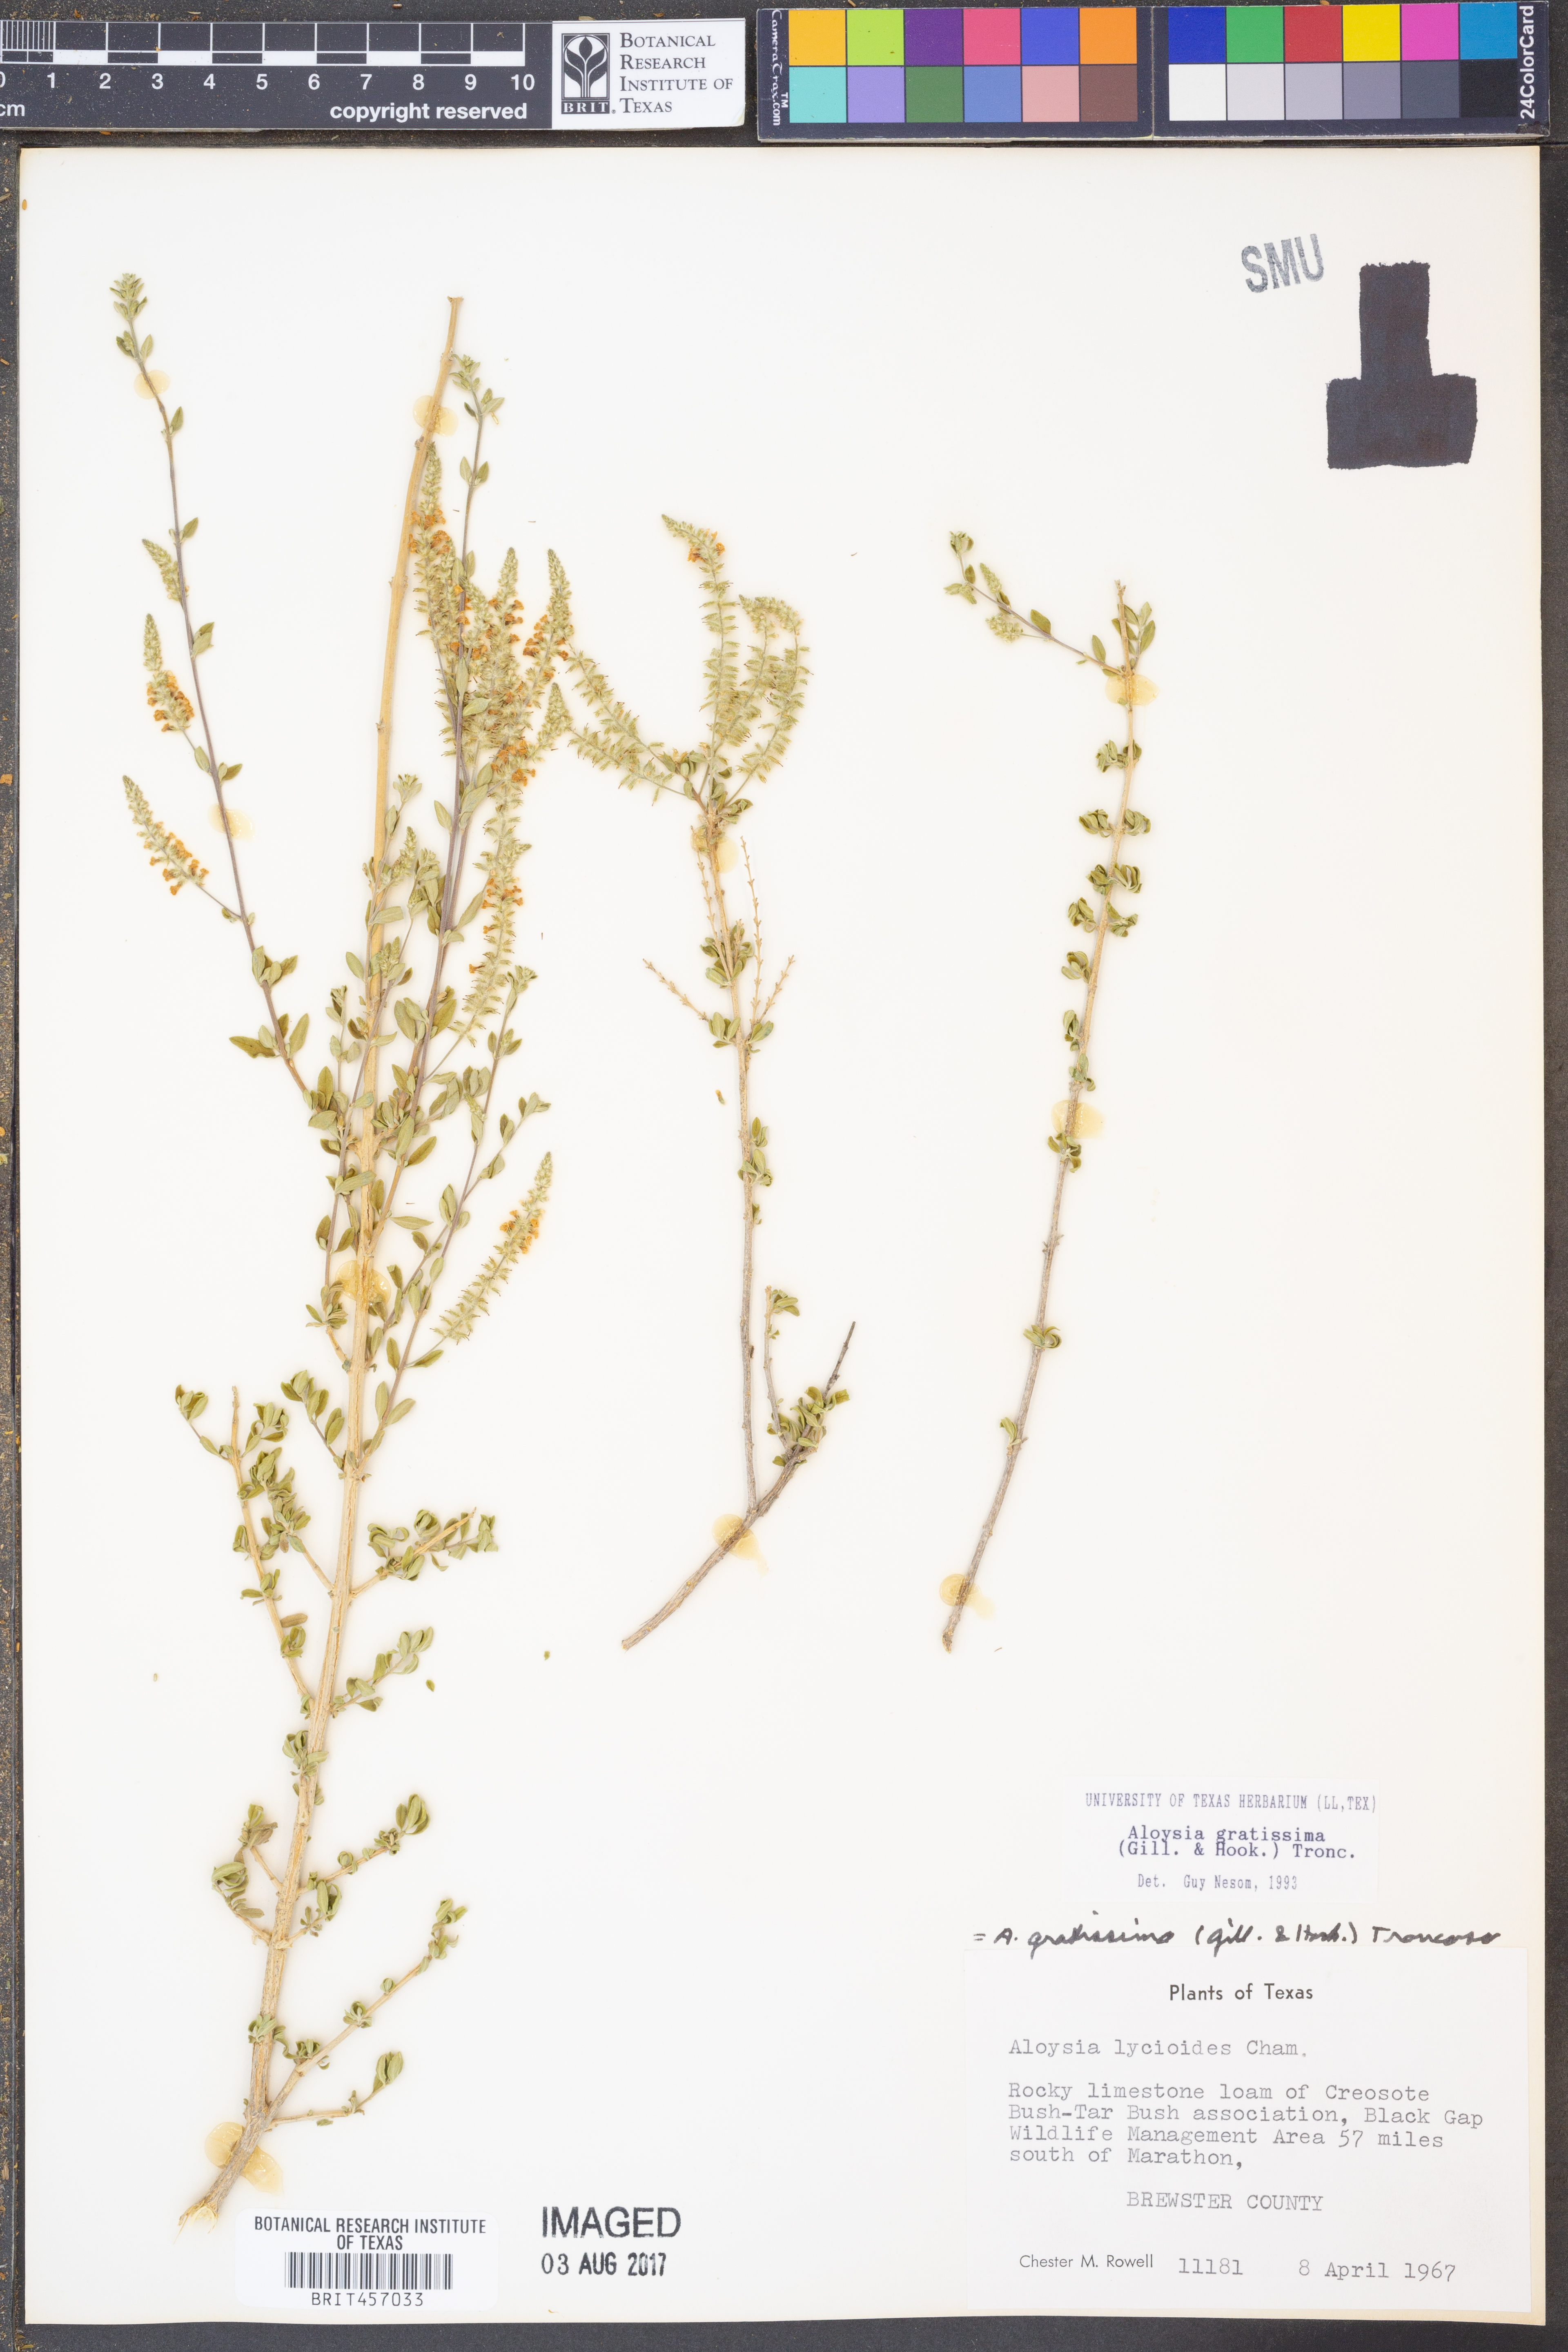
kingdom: Plantae
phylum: Tracheophyta
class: Magnoliopsida
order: Lamiales
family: Verbenaceae
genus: Aloysia
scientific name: Aloysia gratissima
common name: Common bee-brush
